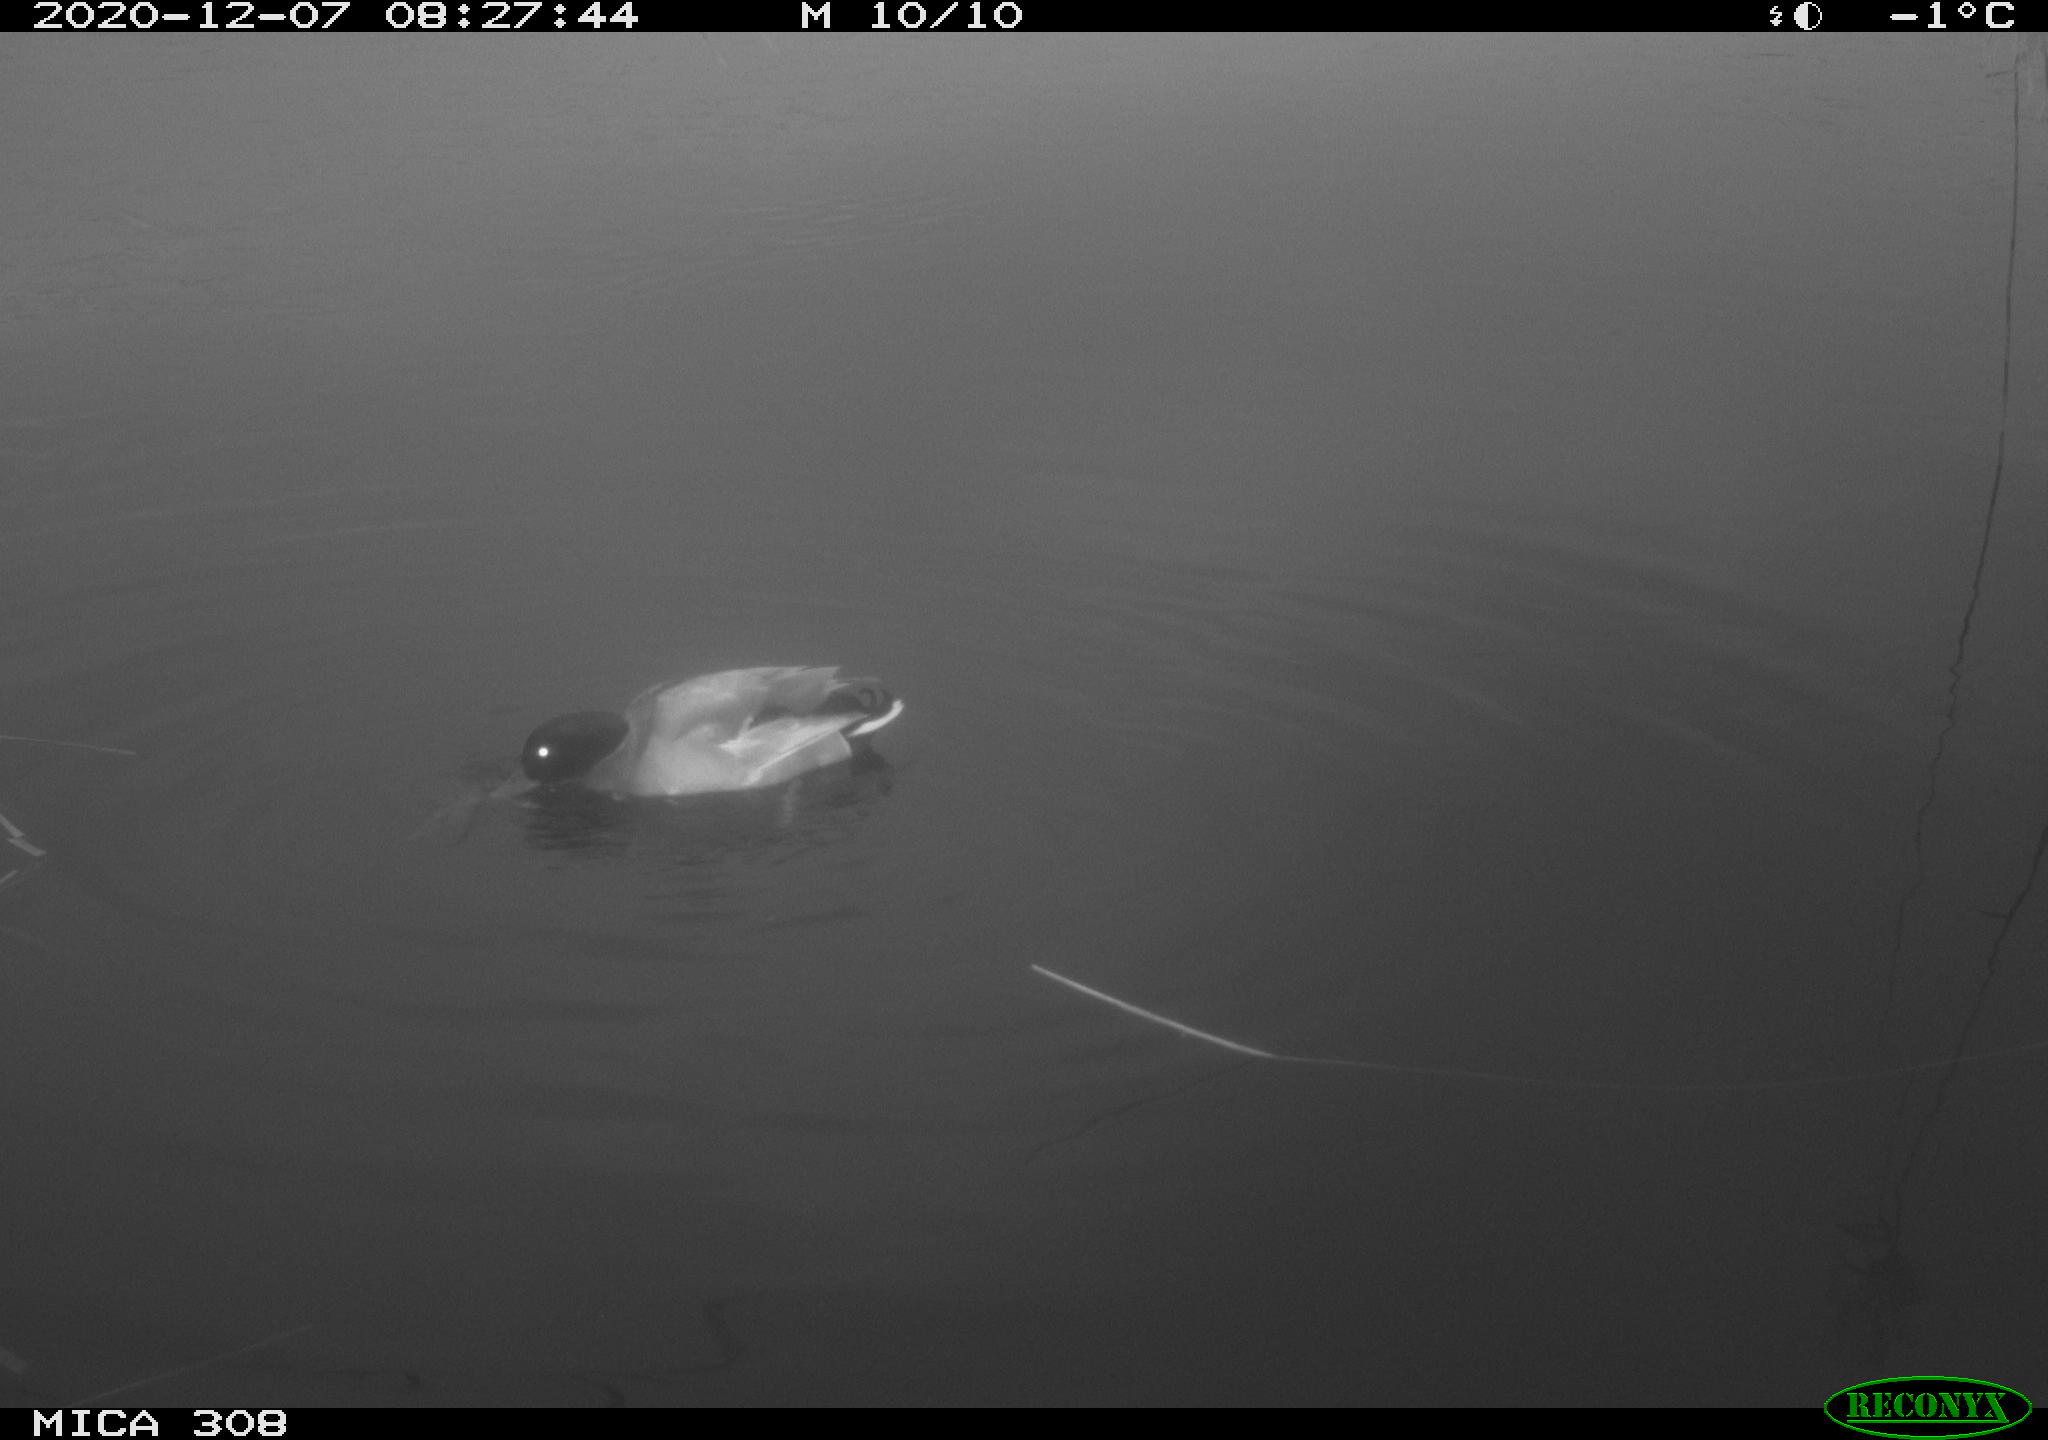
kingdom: Animalia
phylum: Chordata
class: Aves
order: Anseriformes
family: Anatidae
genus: Anas
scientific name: Anas platyrhynchos
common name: Mallard
